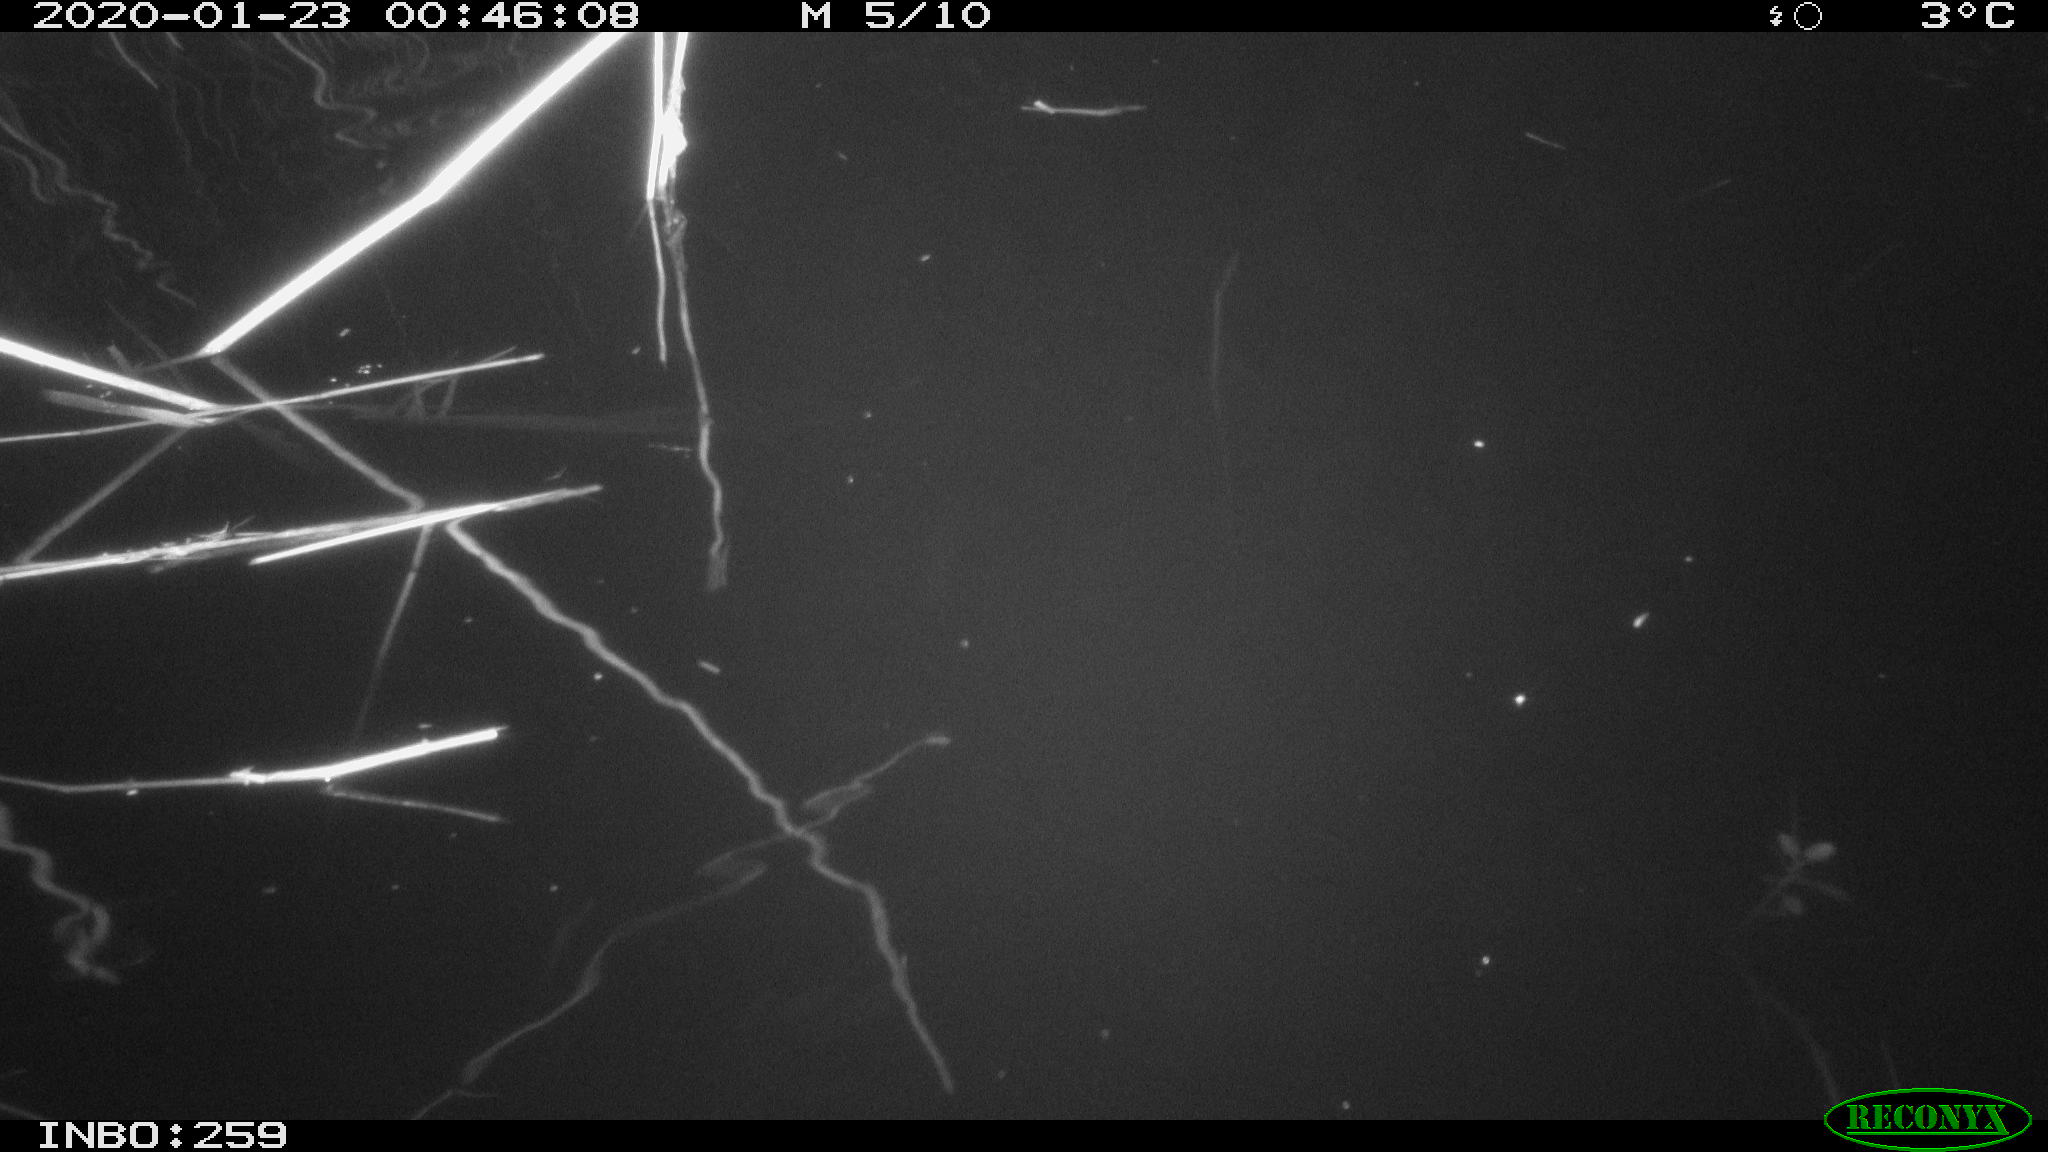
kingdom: Animalia
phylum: Chordata
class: Mammalia
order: Rodentia
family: Cricetidae
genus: Ondatra
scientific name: Ondatra zibethicus
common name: Muskrat
